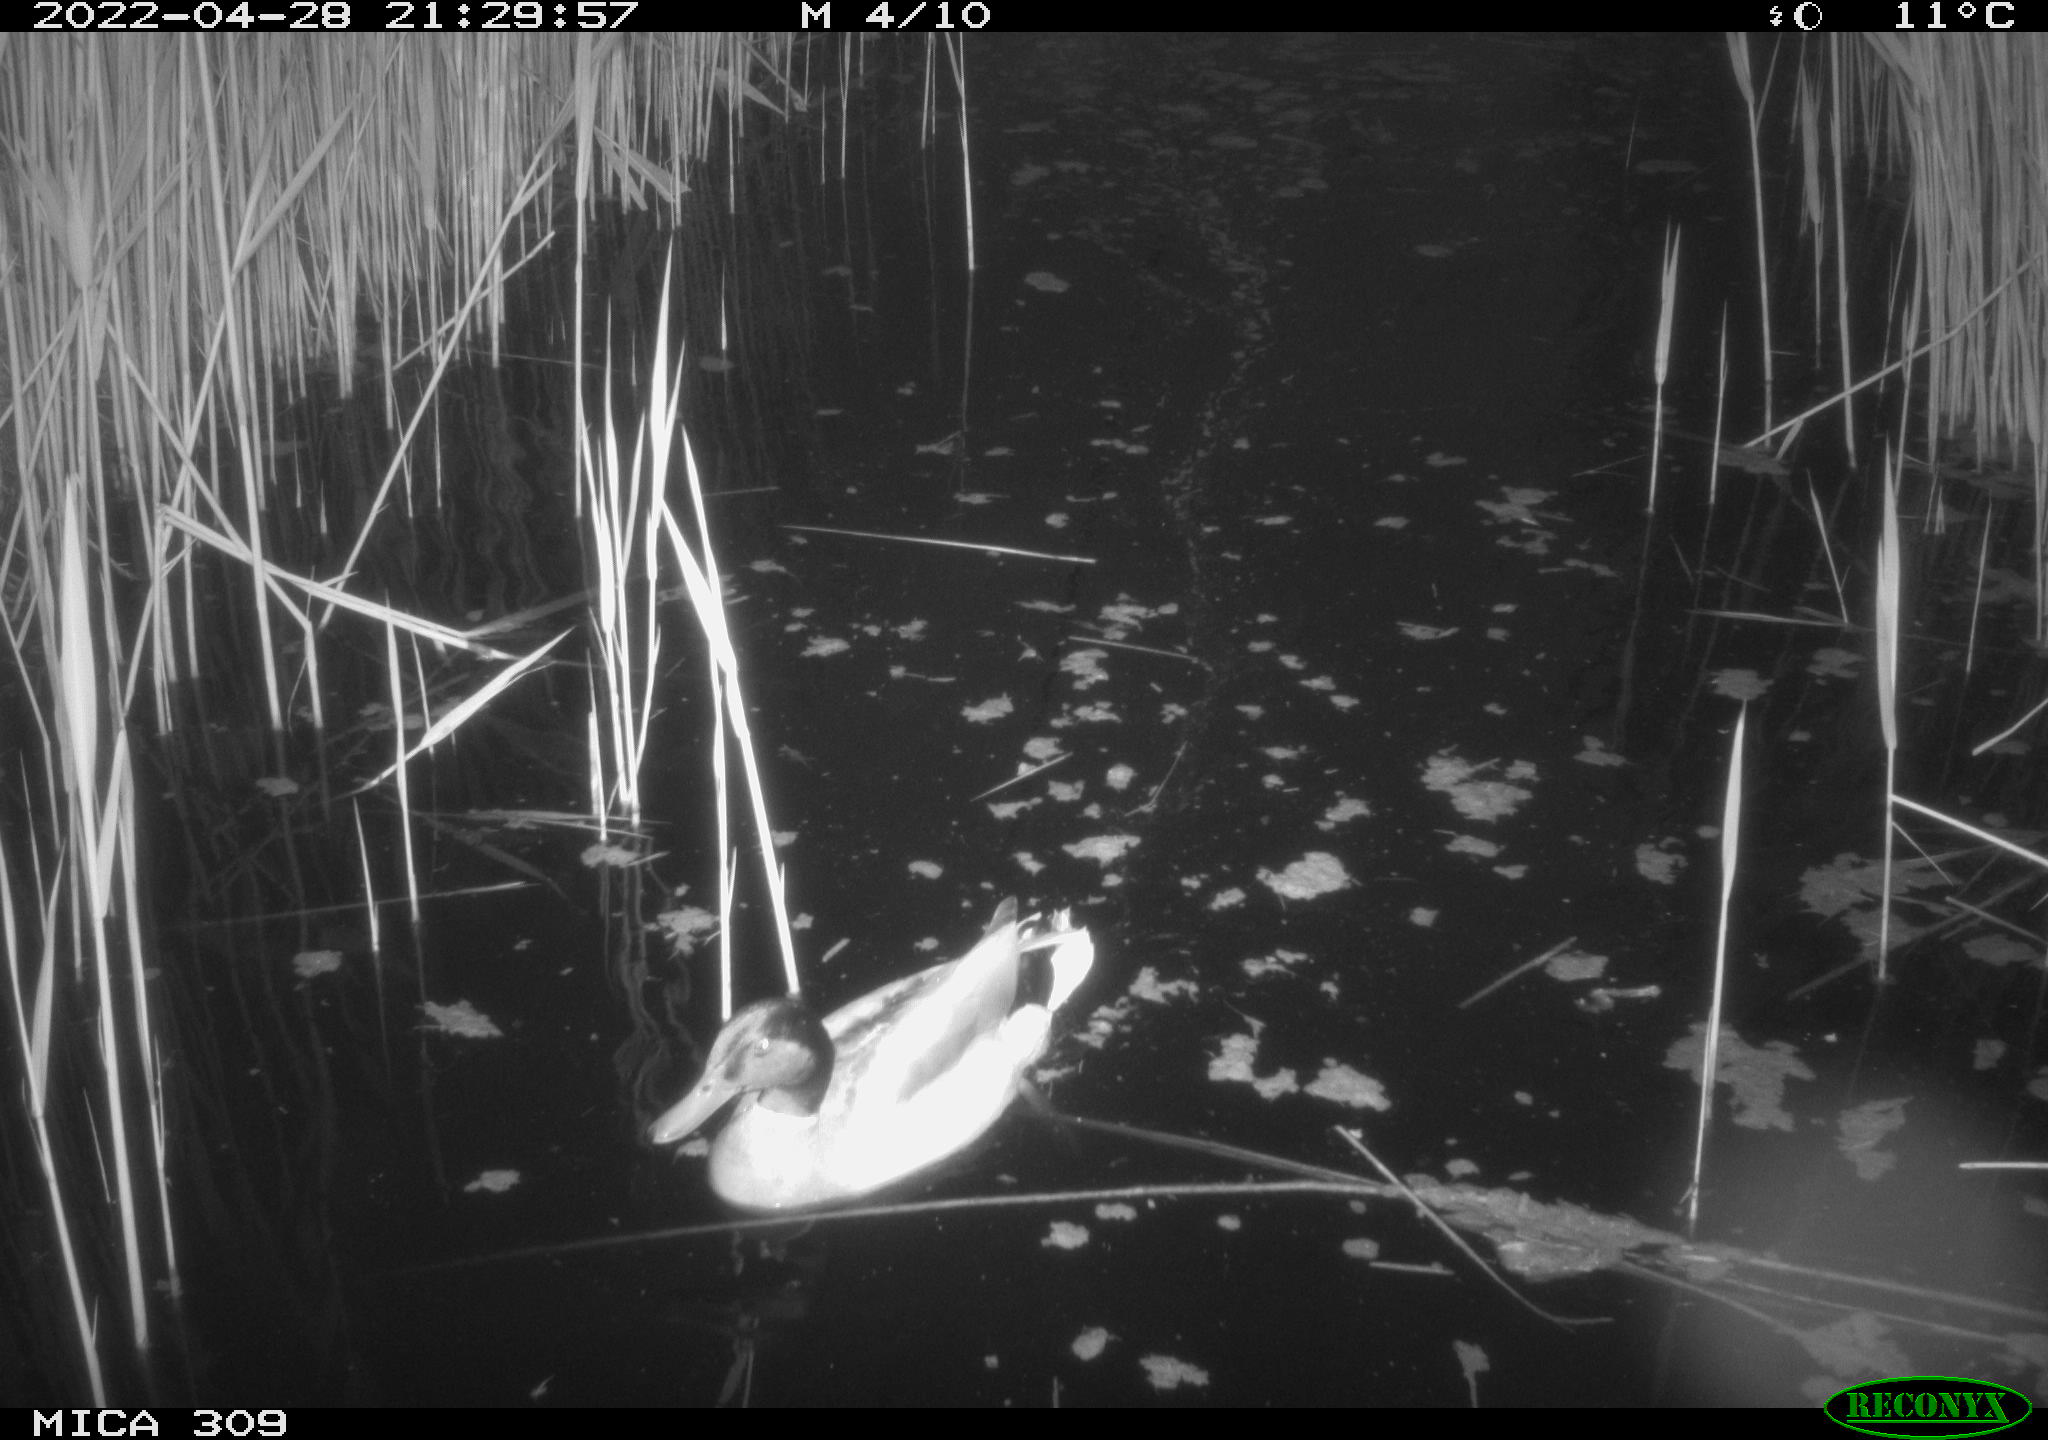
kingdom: Animalia
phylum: Chordata
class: Aves
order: Anseriformes
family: Anatidae
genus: Anas
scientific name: Anas platyrhynchos
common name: Mallard
